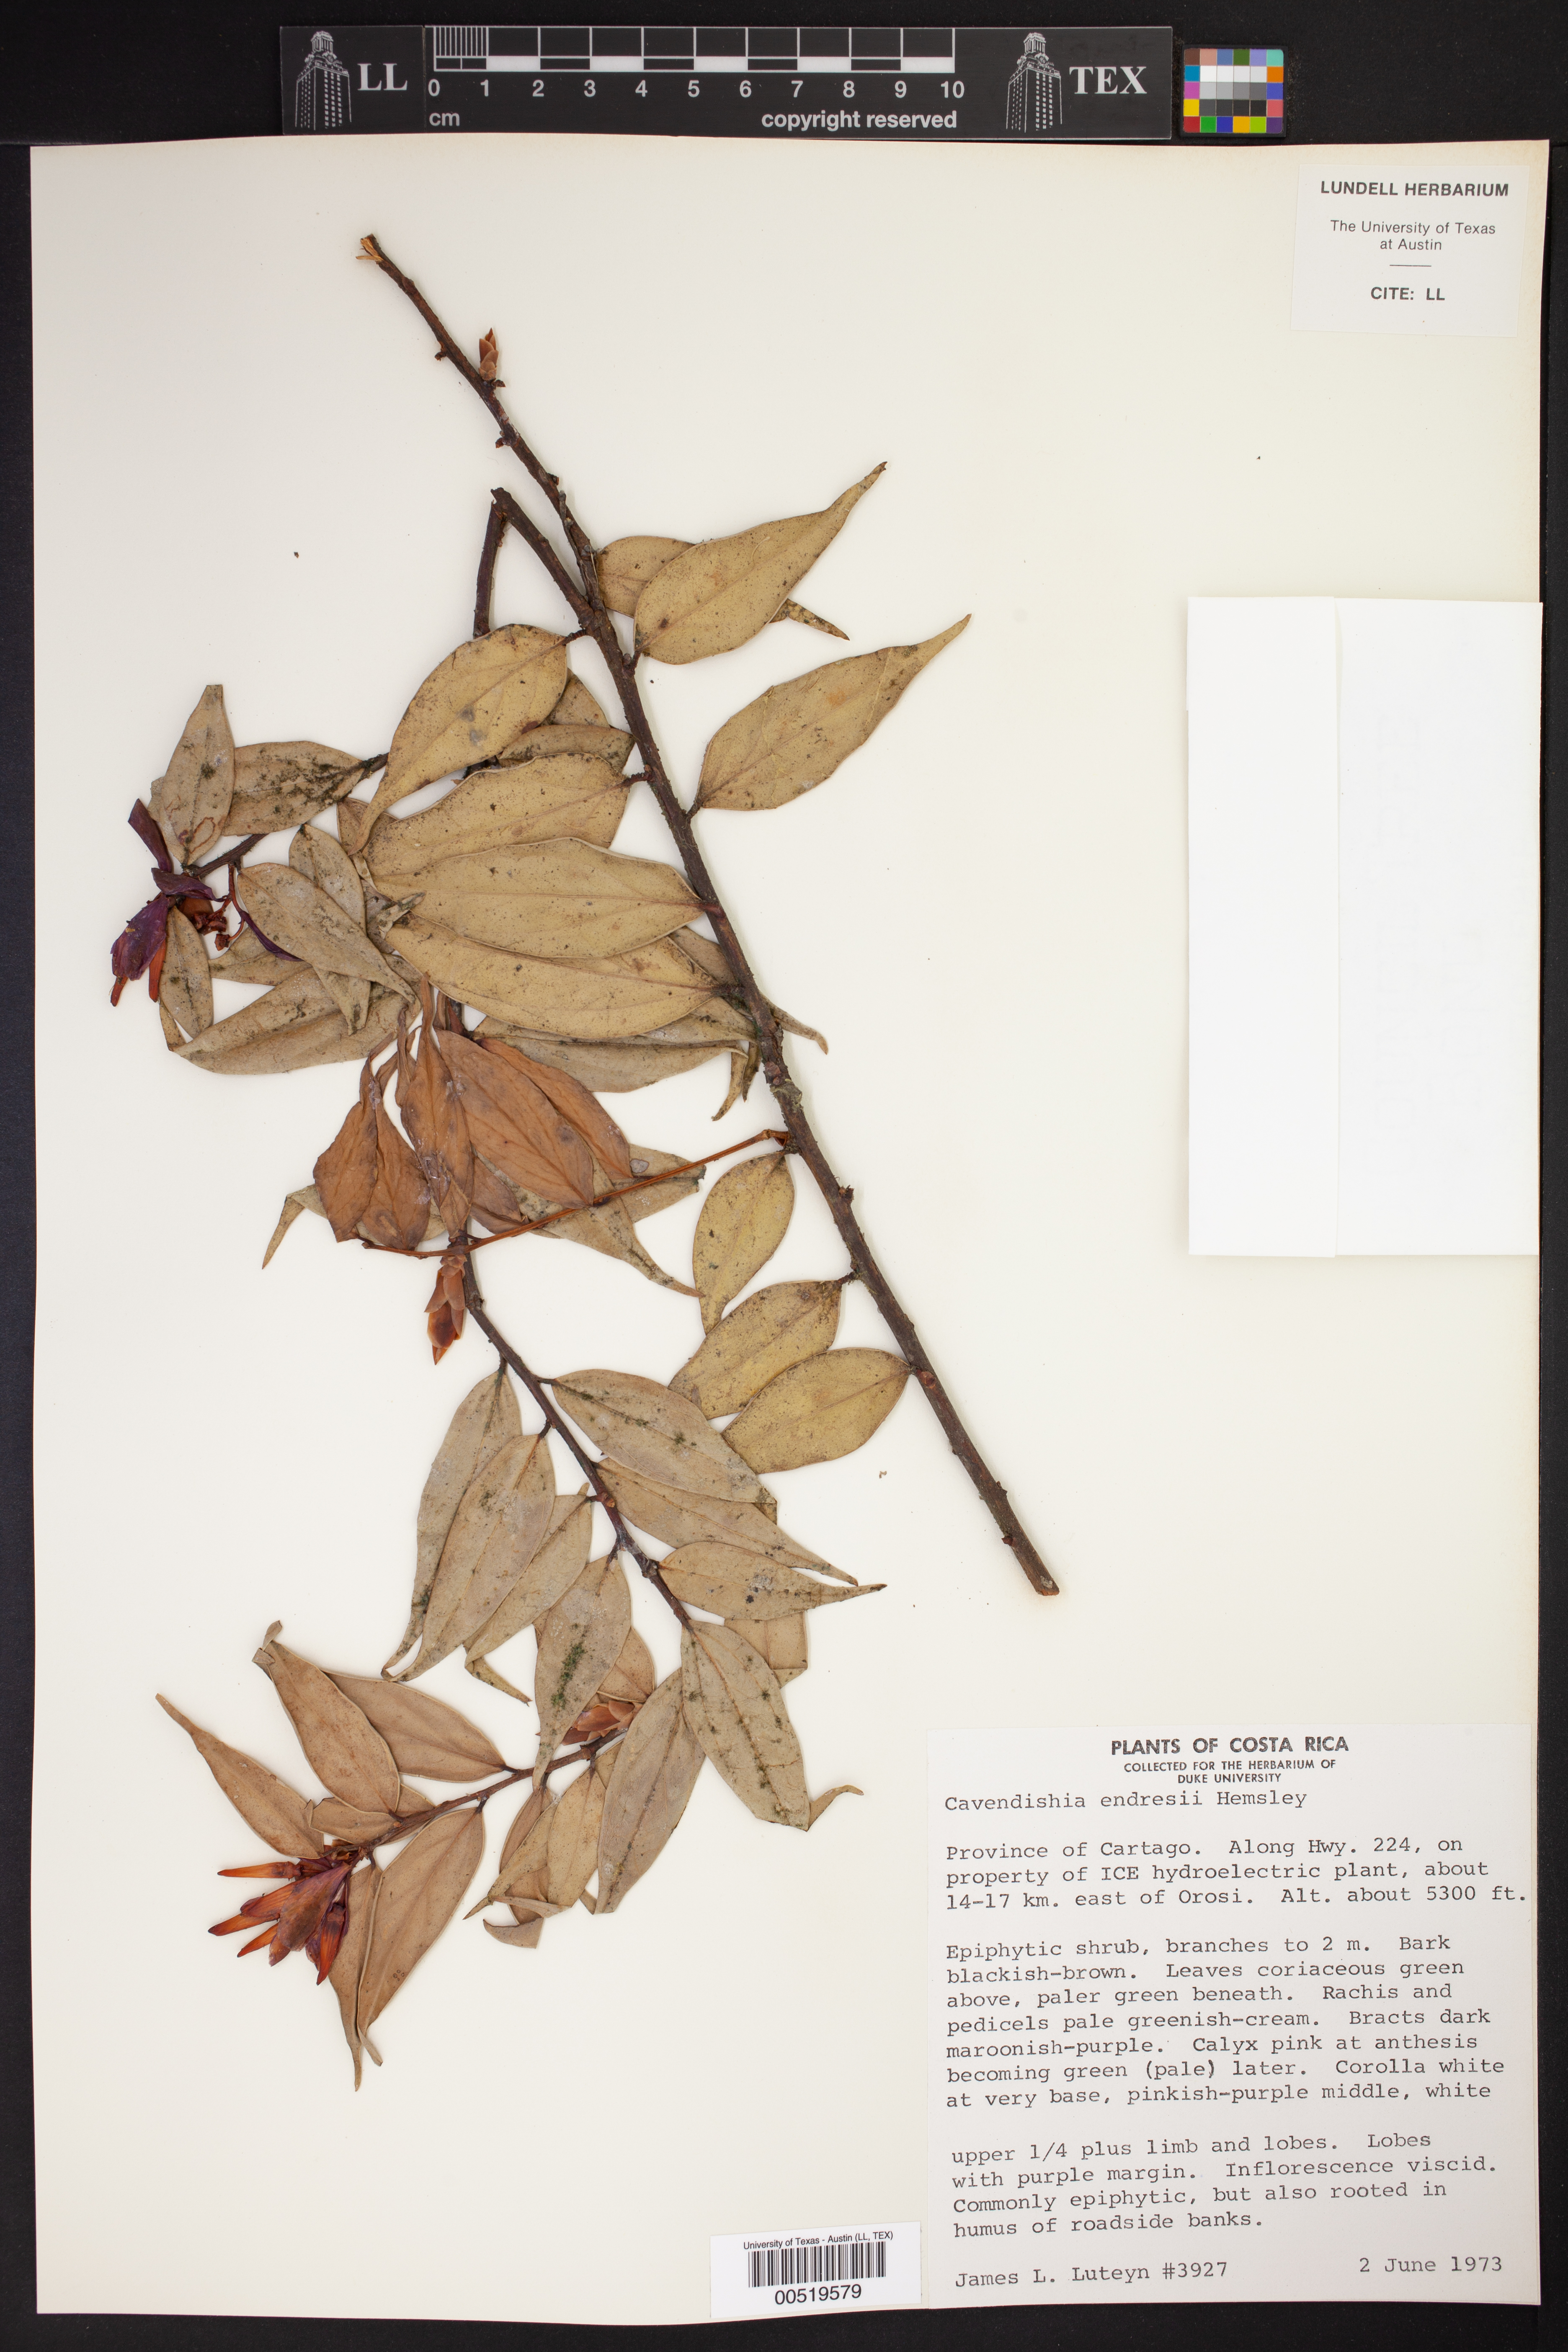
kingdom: Plantae
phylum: Tracheophyta
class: Magnoliopsida
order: Ericales
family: Ericaceae
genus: Cavendishia
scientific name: Cavendishia endresii
